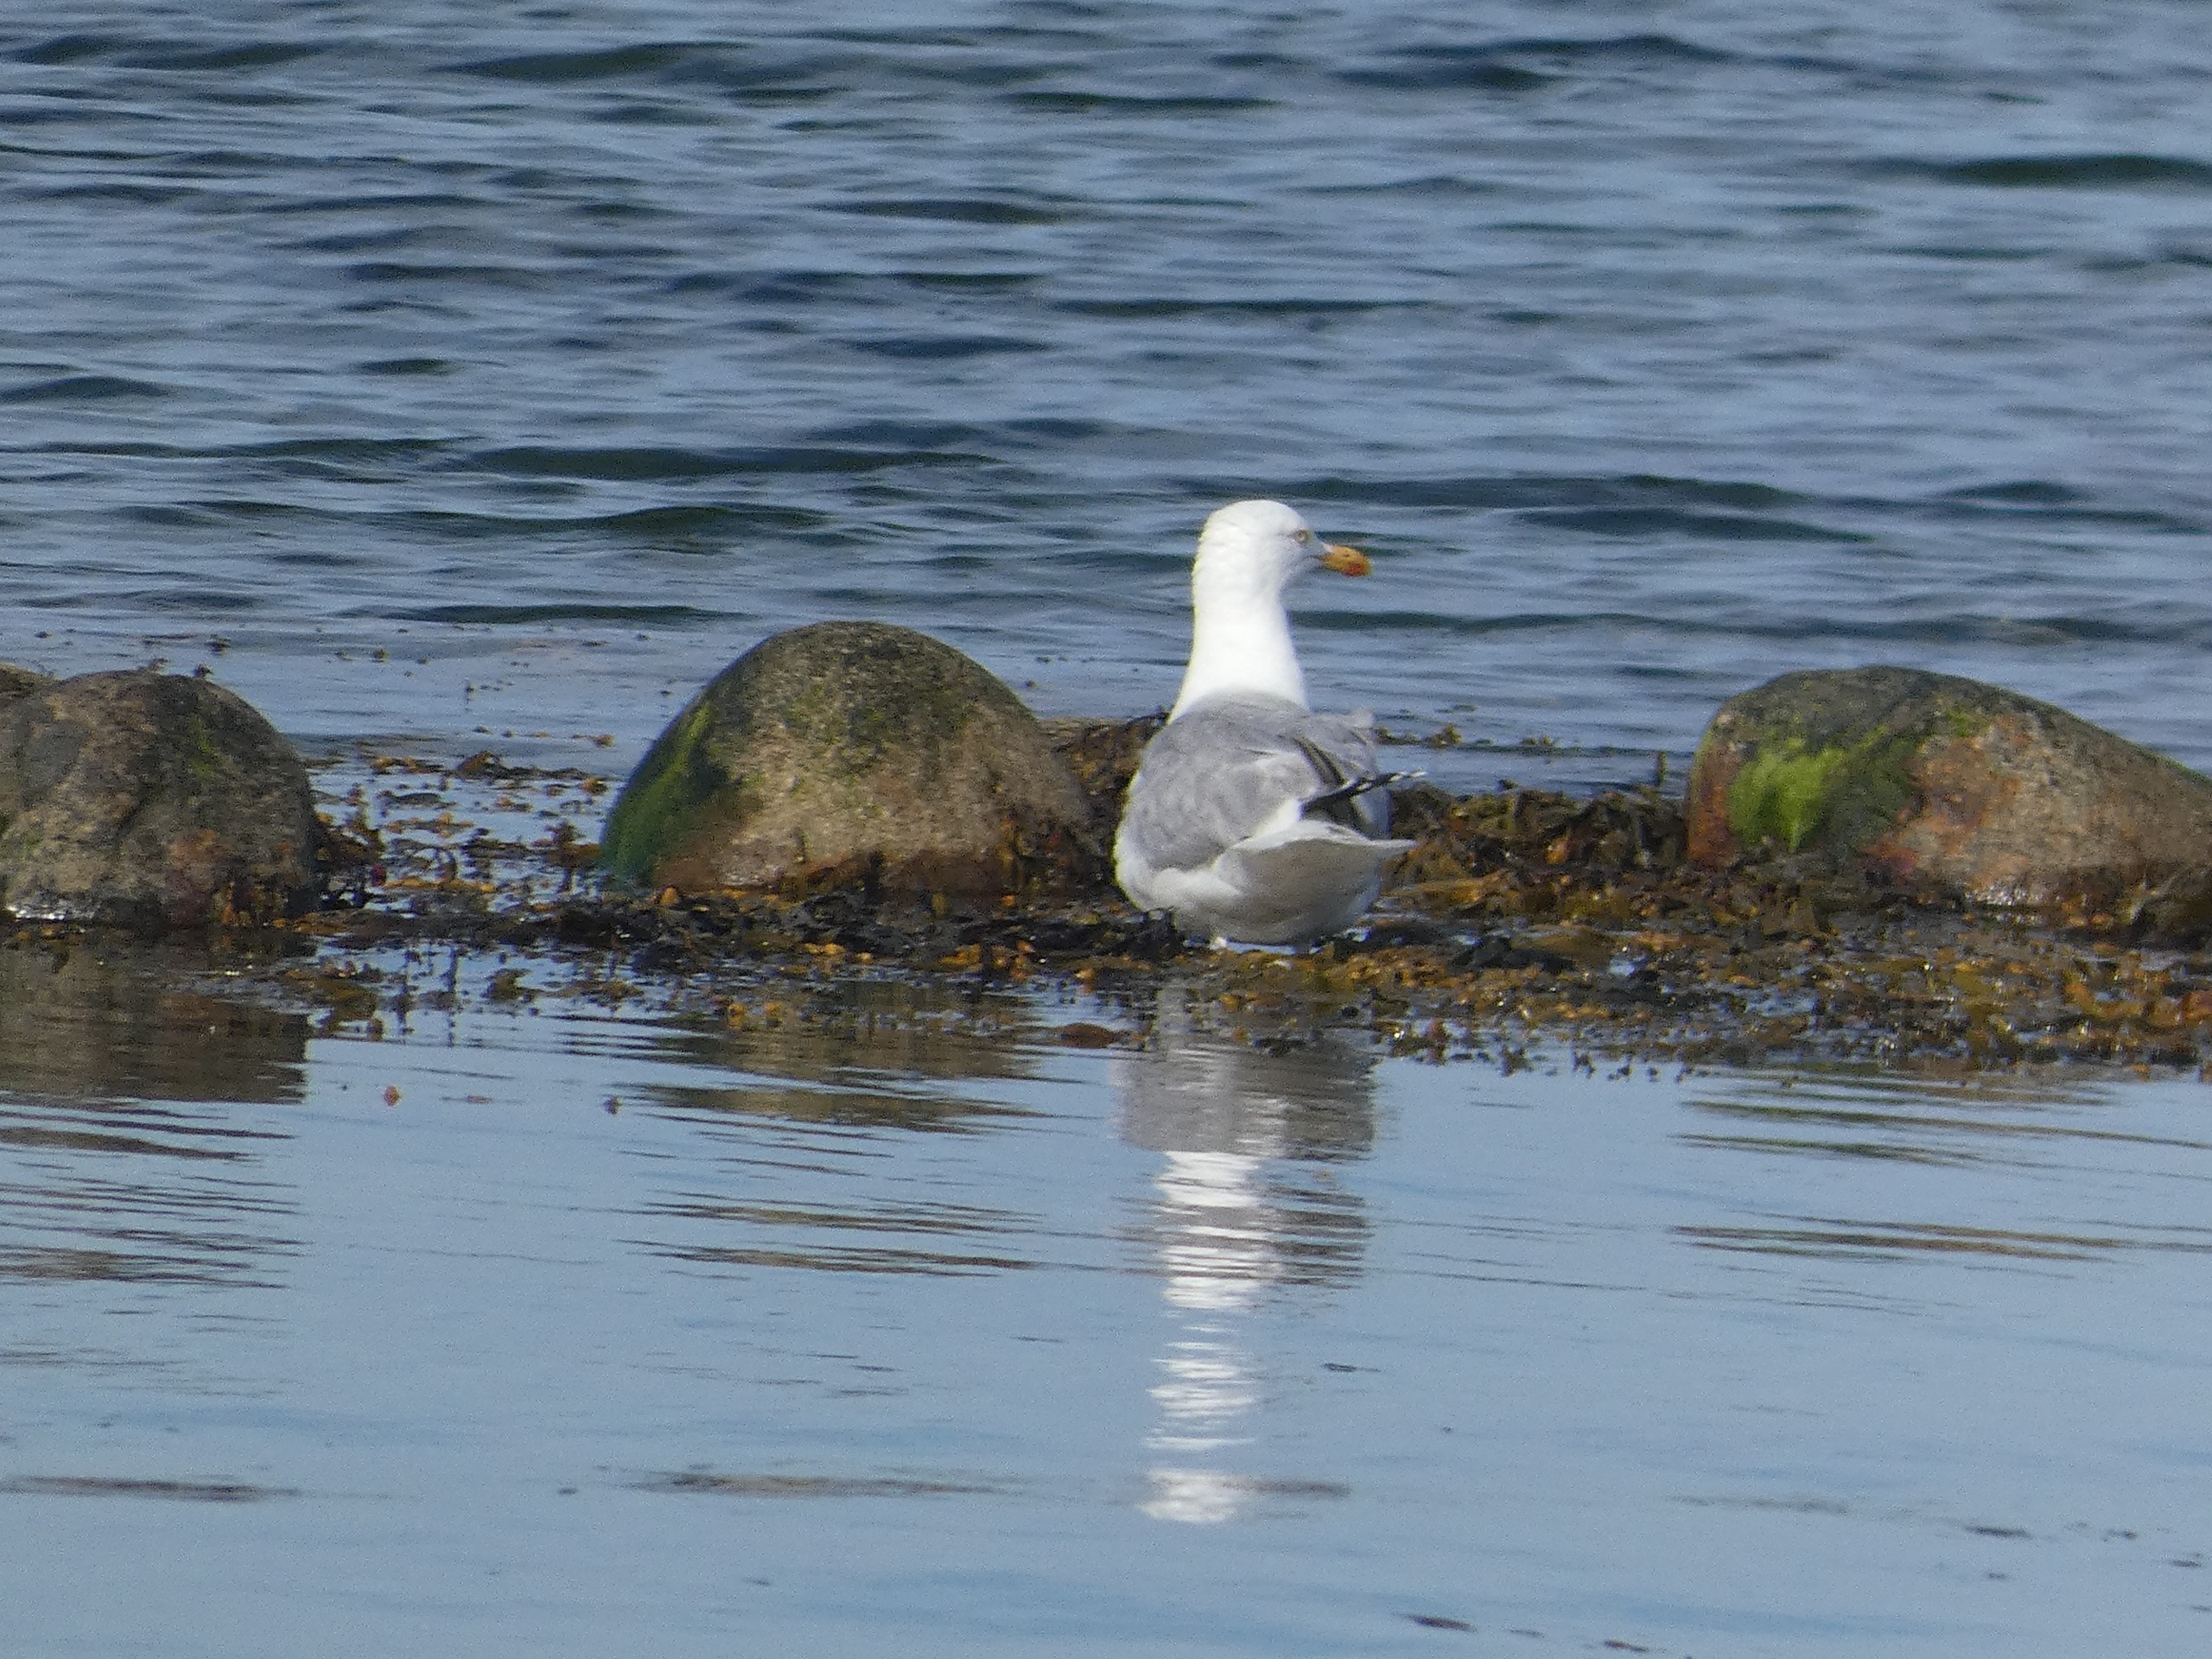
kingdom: Animalia
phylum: Chordata
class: Aves
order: Charadriiformes
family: Laridae
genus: Larus
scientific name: Larus argentatus
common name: Sølvmåge
